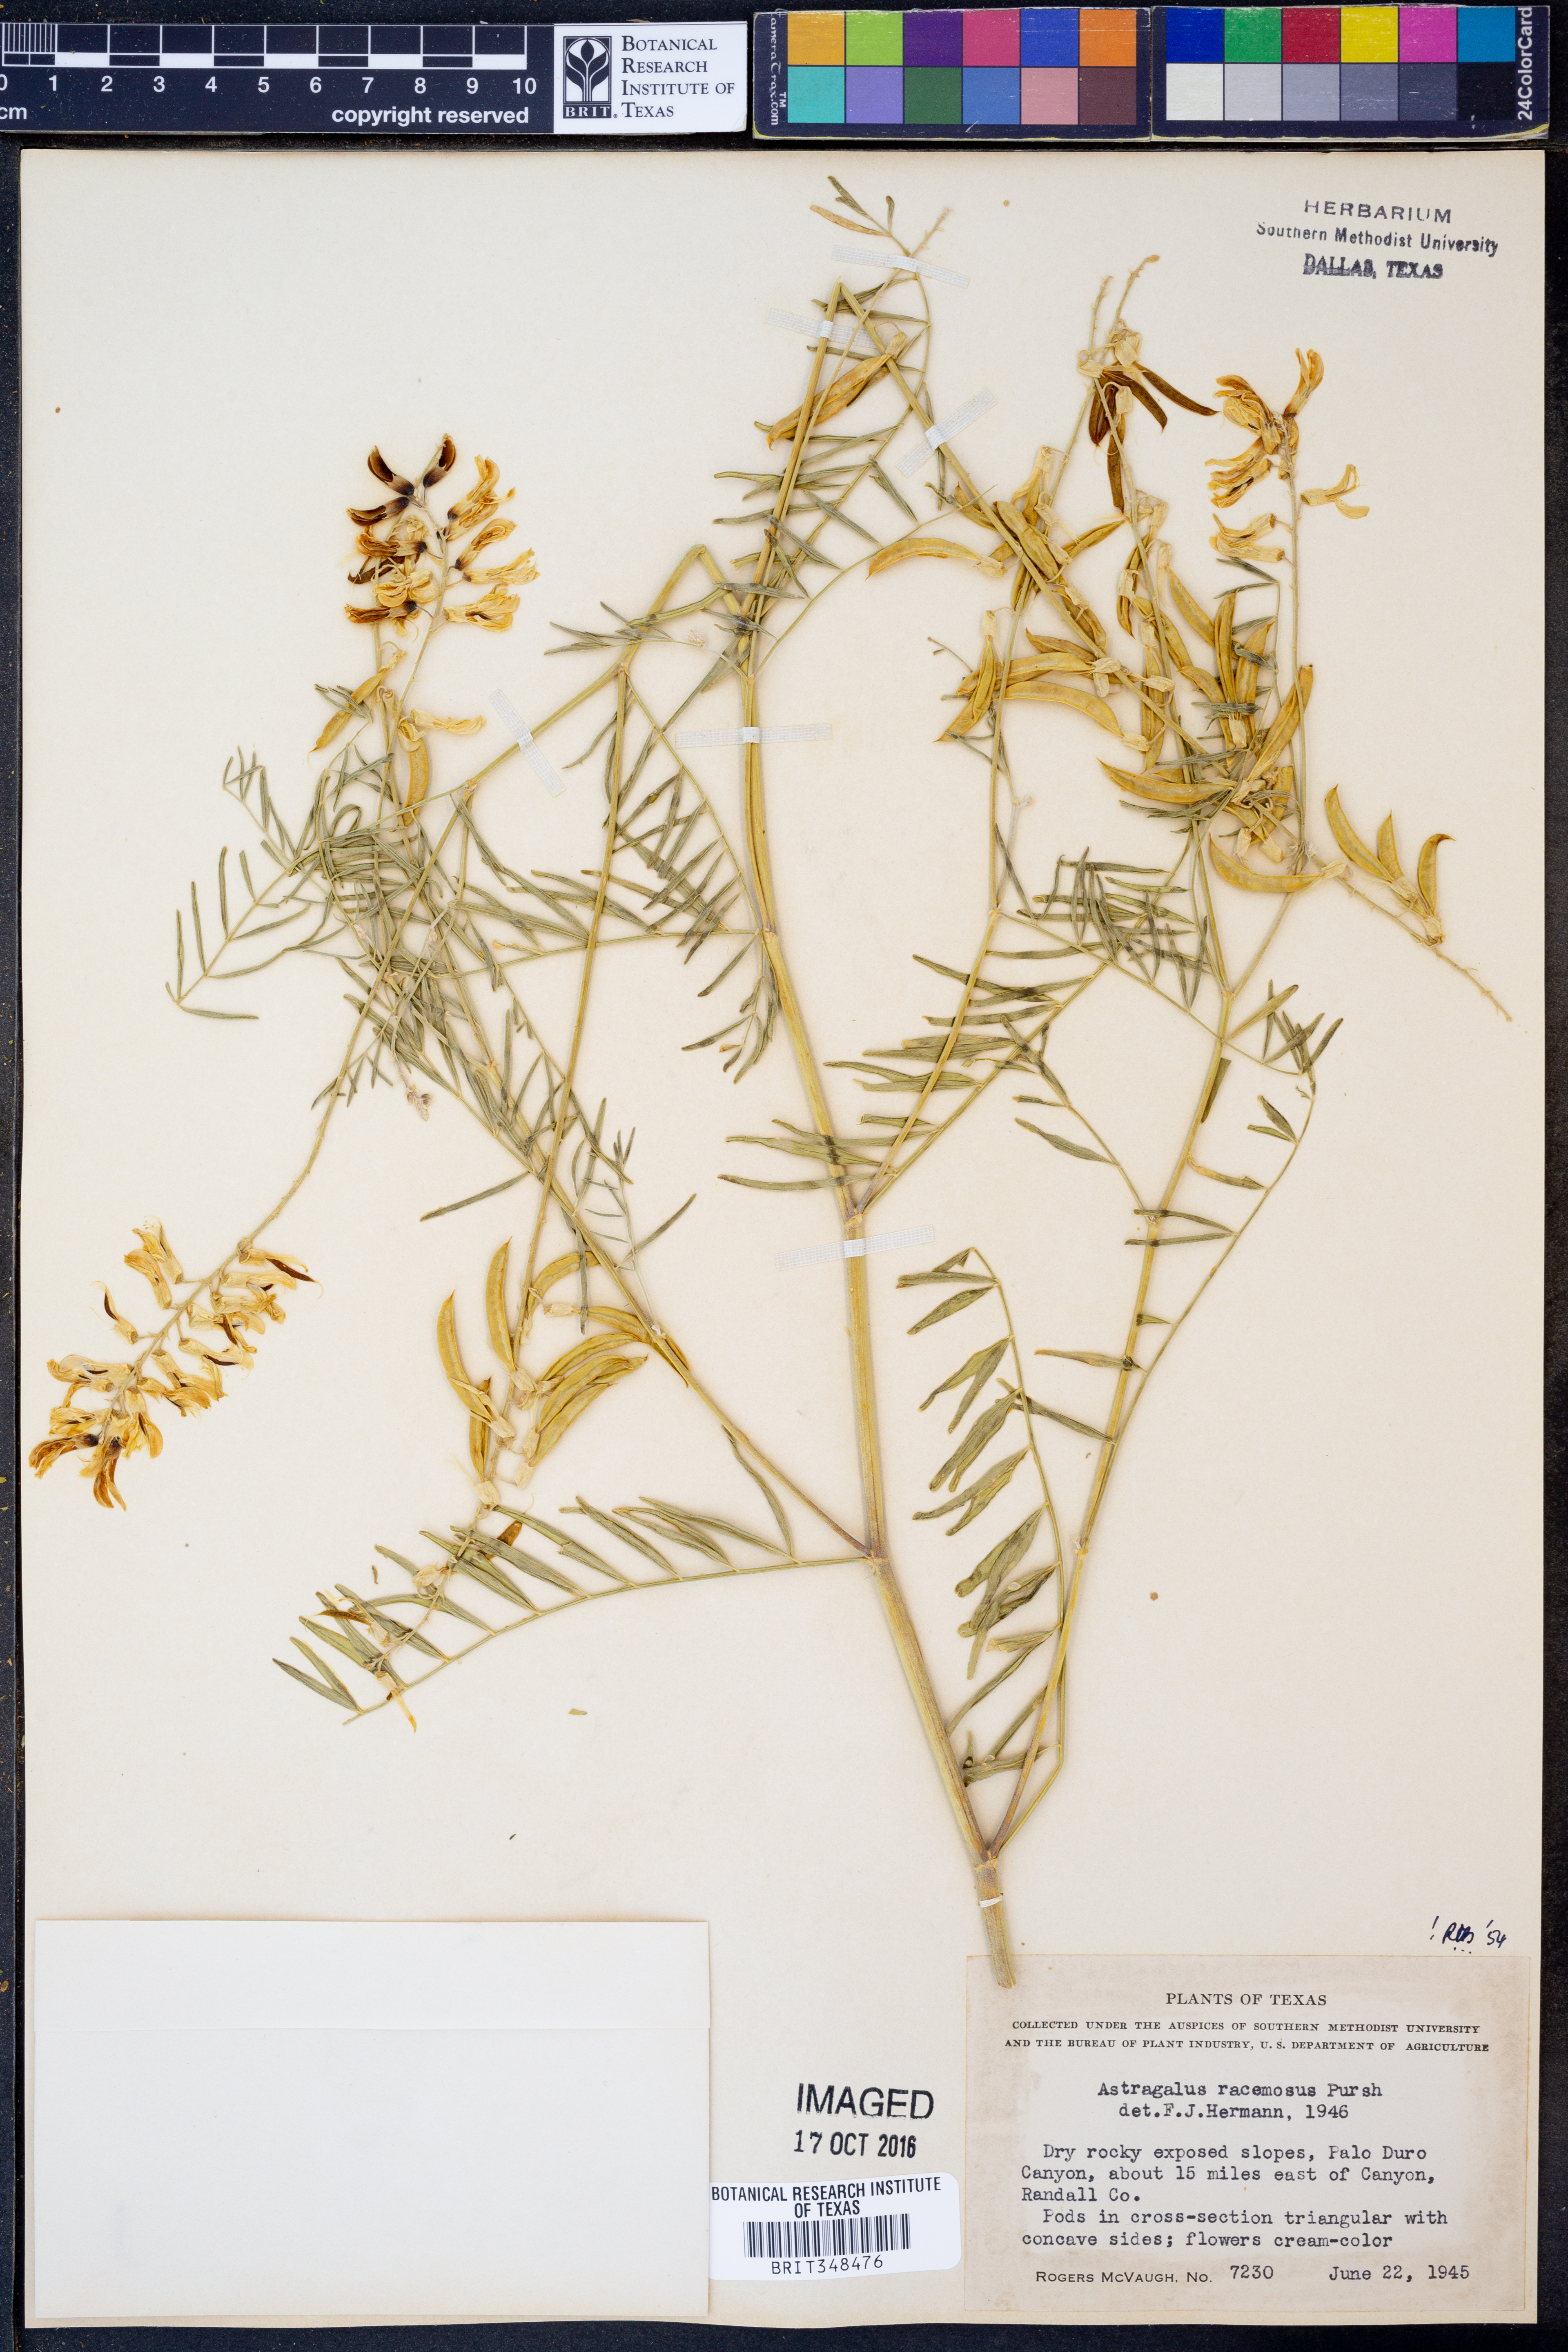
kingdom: Plantae
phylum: Tracheophyta
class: Magnoliopsida
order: Fabales
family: Fabaceae
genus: Astragalus
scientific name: Astragalus racemosus
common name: Alkali milk-vetch
